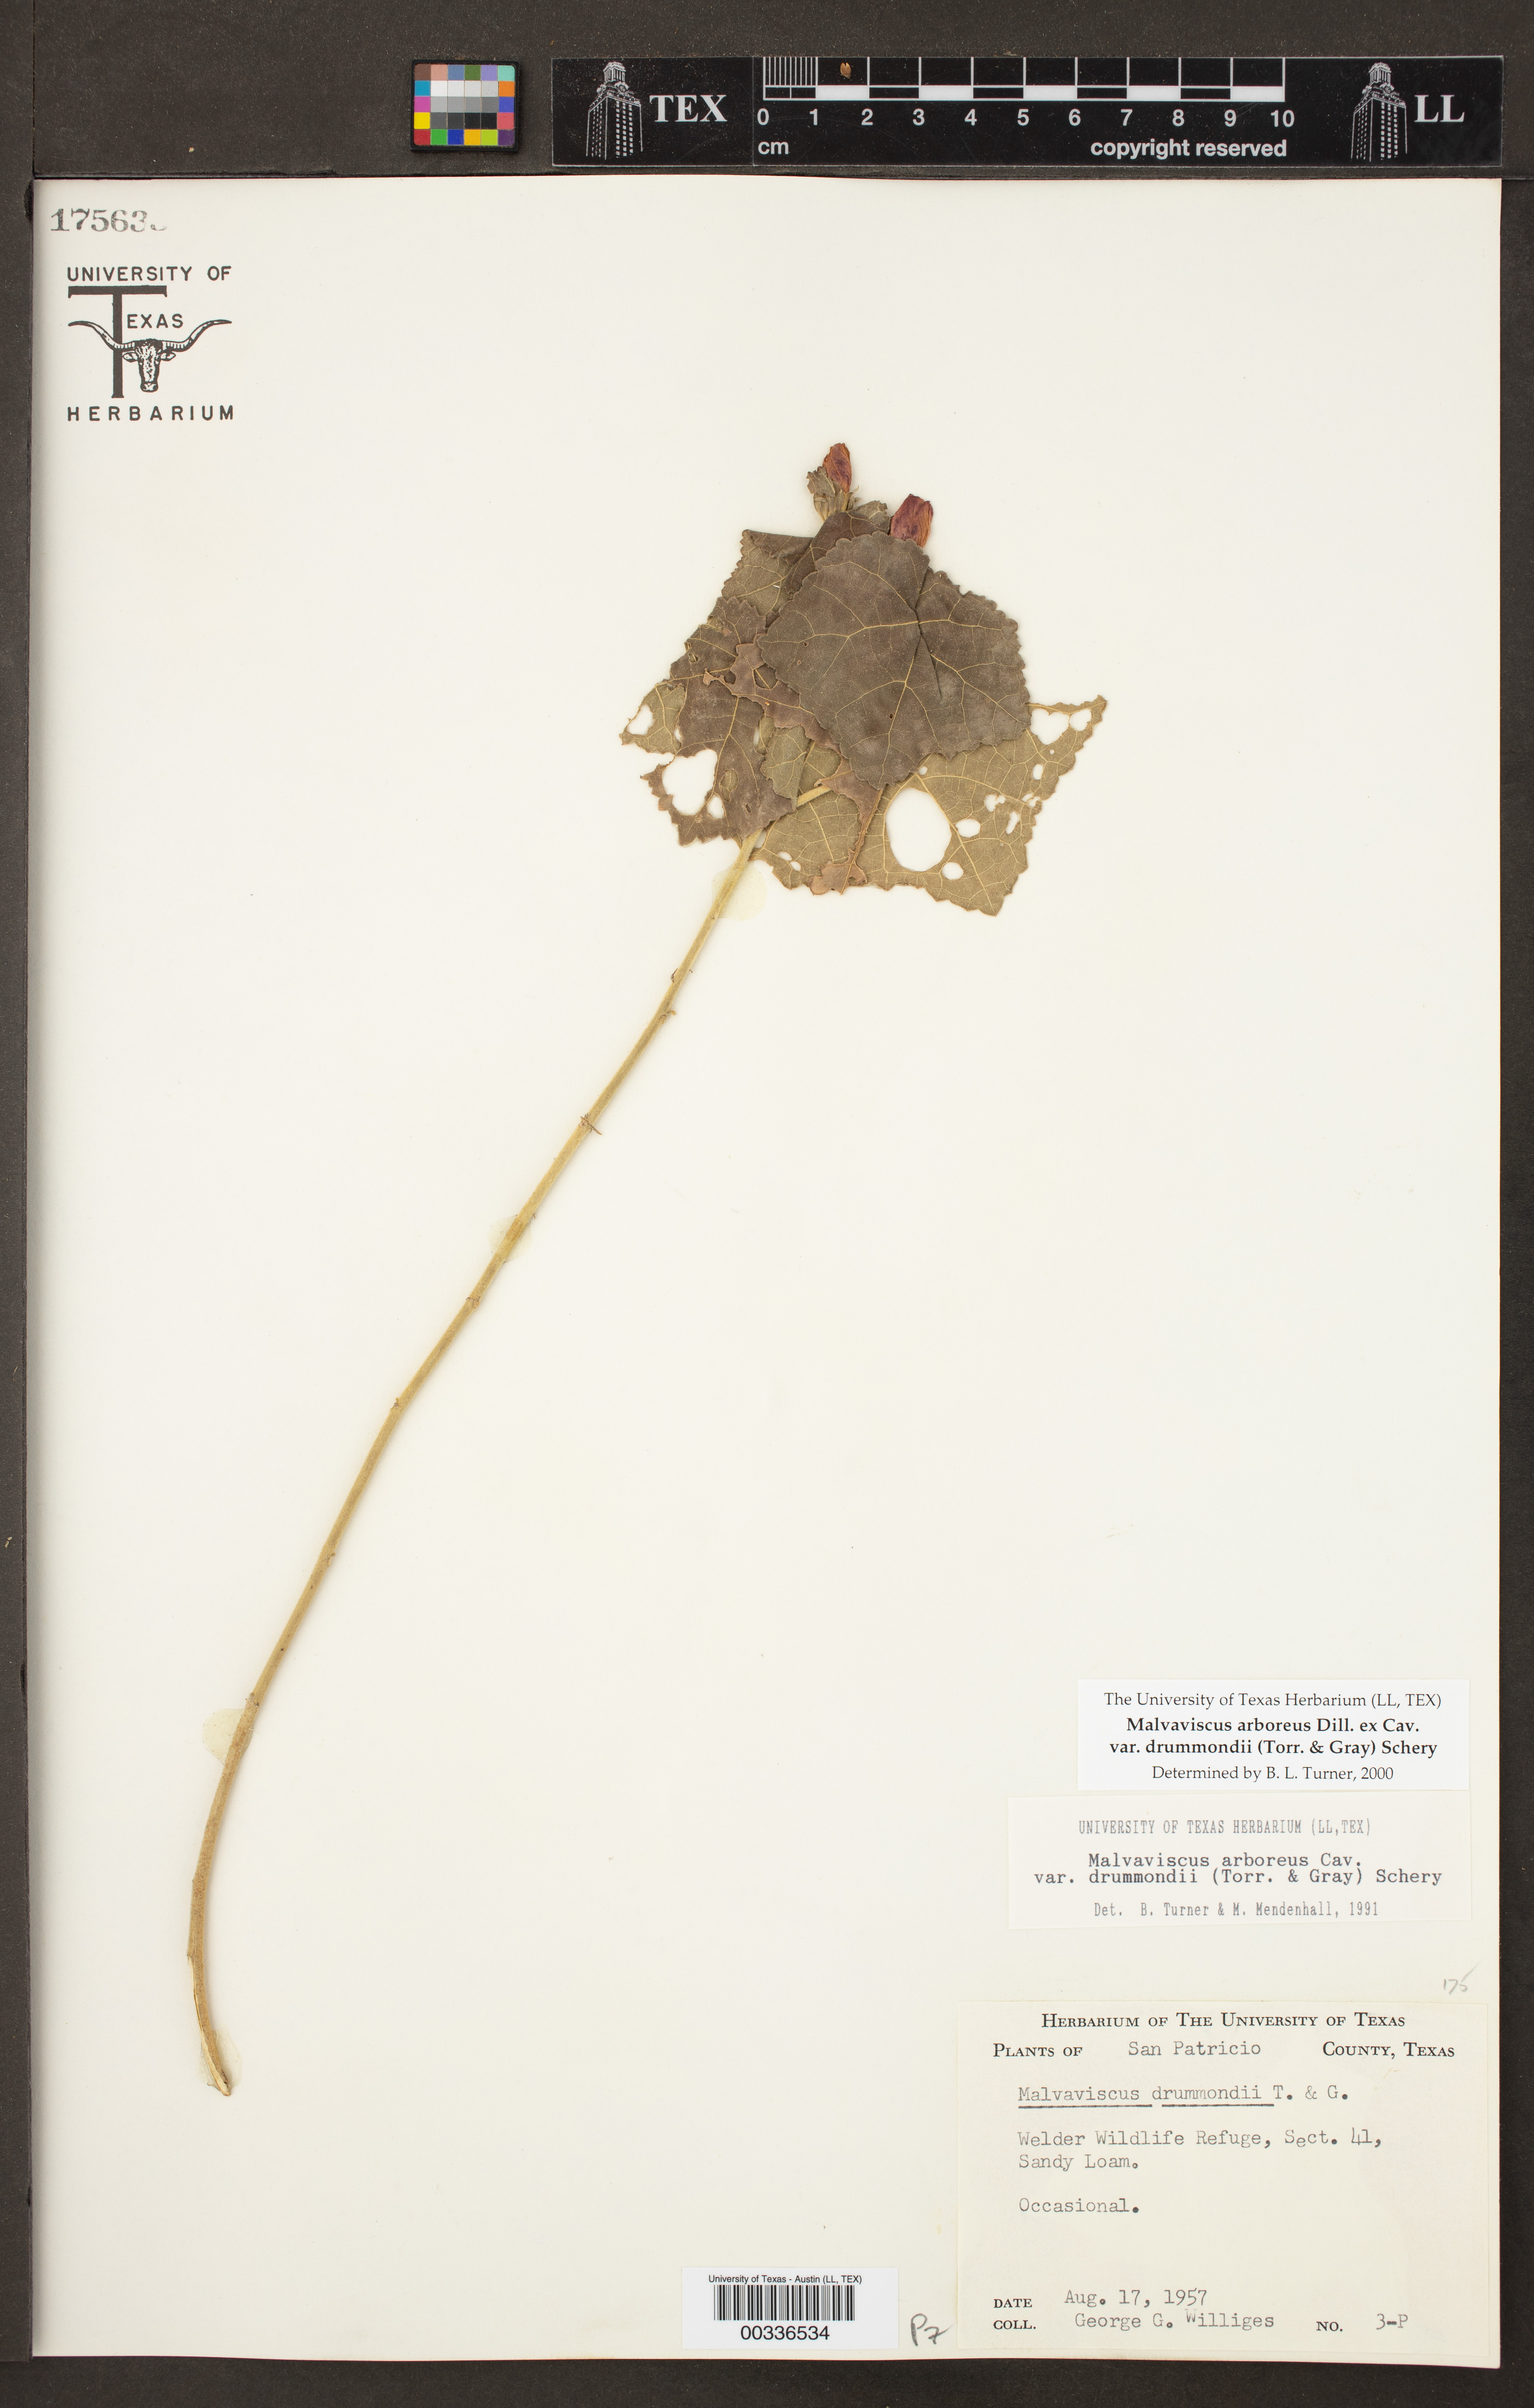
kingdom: Plantae
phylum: Tracheophyta
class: Magnoliopsida
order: Malvales
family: Malvaceae
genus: Malvaviscus
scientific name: Malvaviscus arboreus
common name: Wax mallow
